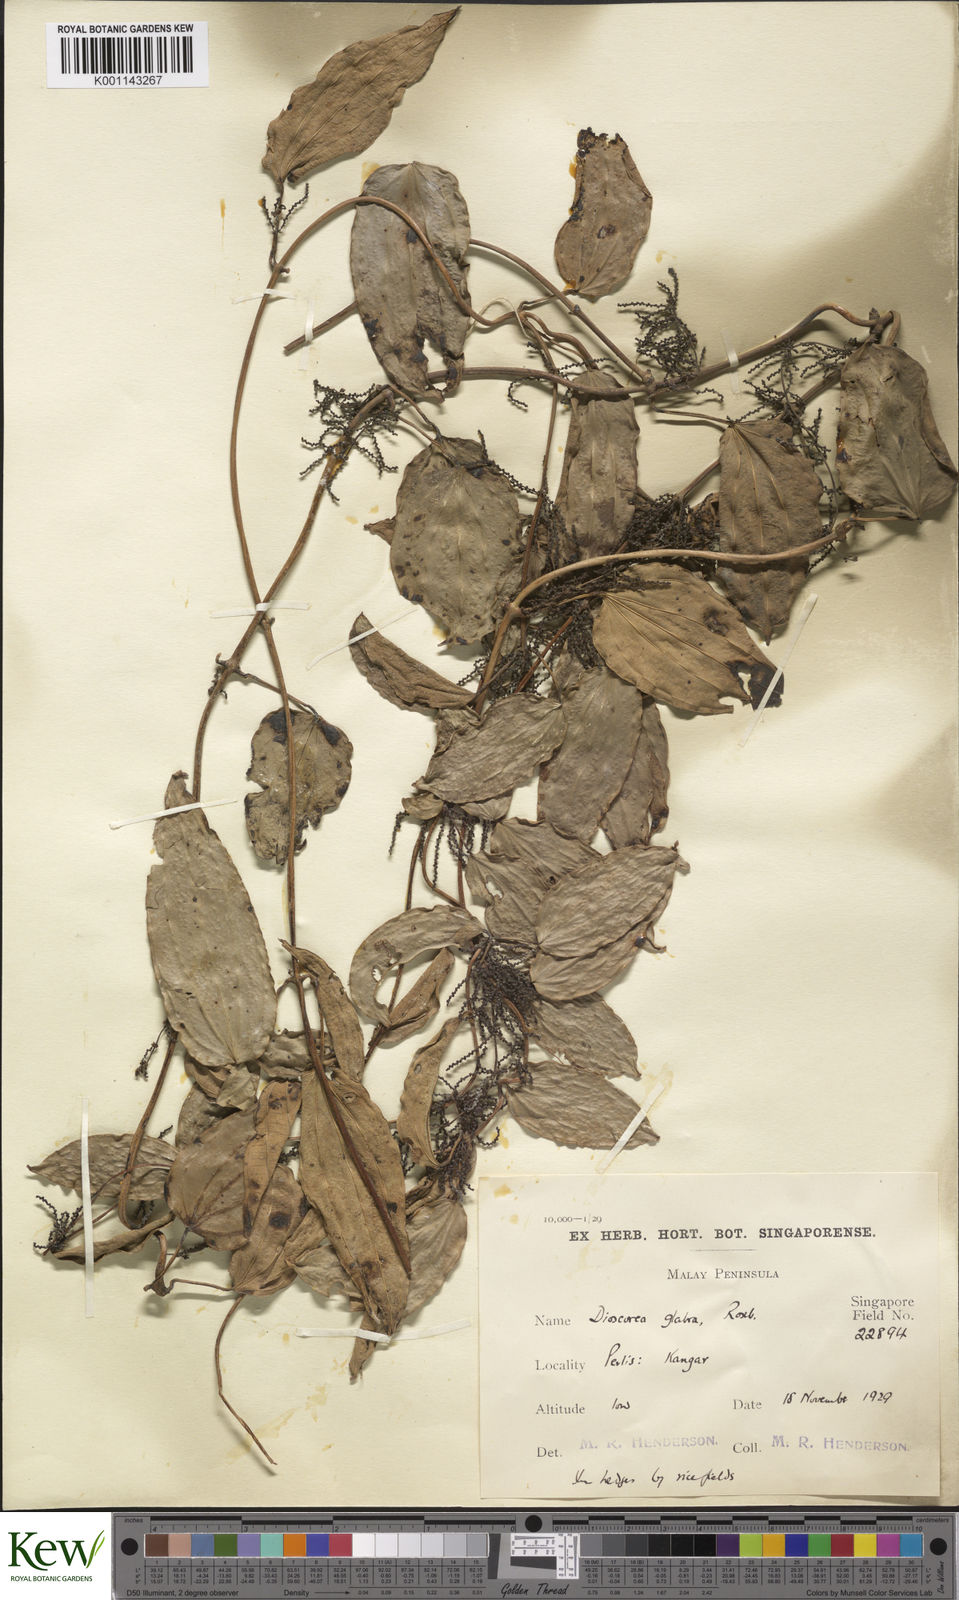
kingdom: Plantae
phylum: Tracheophyta
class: Liliopsida
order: Dioscoreales
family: Dioscoreaceae
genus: Dioscorea
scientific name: Dioscorea glabra
